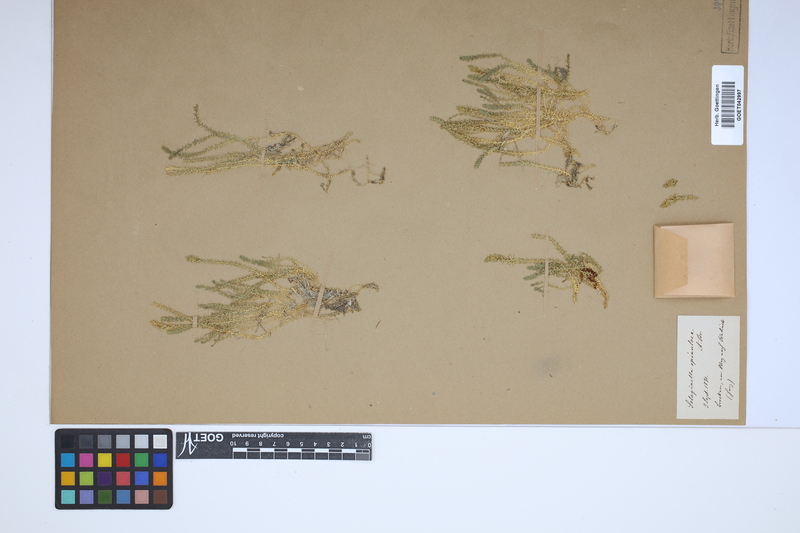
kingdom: Plantae
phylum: Tracheophyta
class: Lycopodiopsida
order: Selaginellales
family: Selaginellaceae
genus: Selaginella
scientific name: Selaginella selaginoides
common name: Prickly mountain-moss
